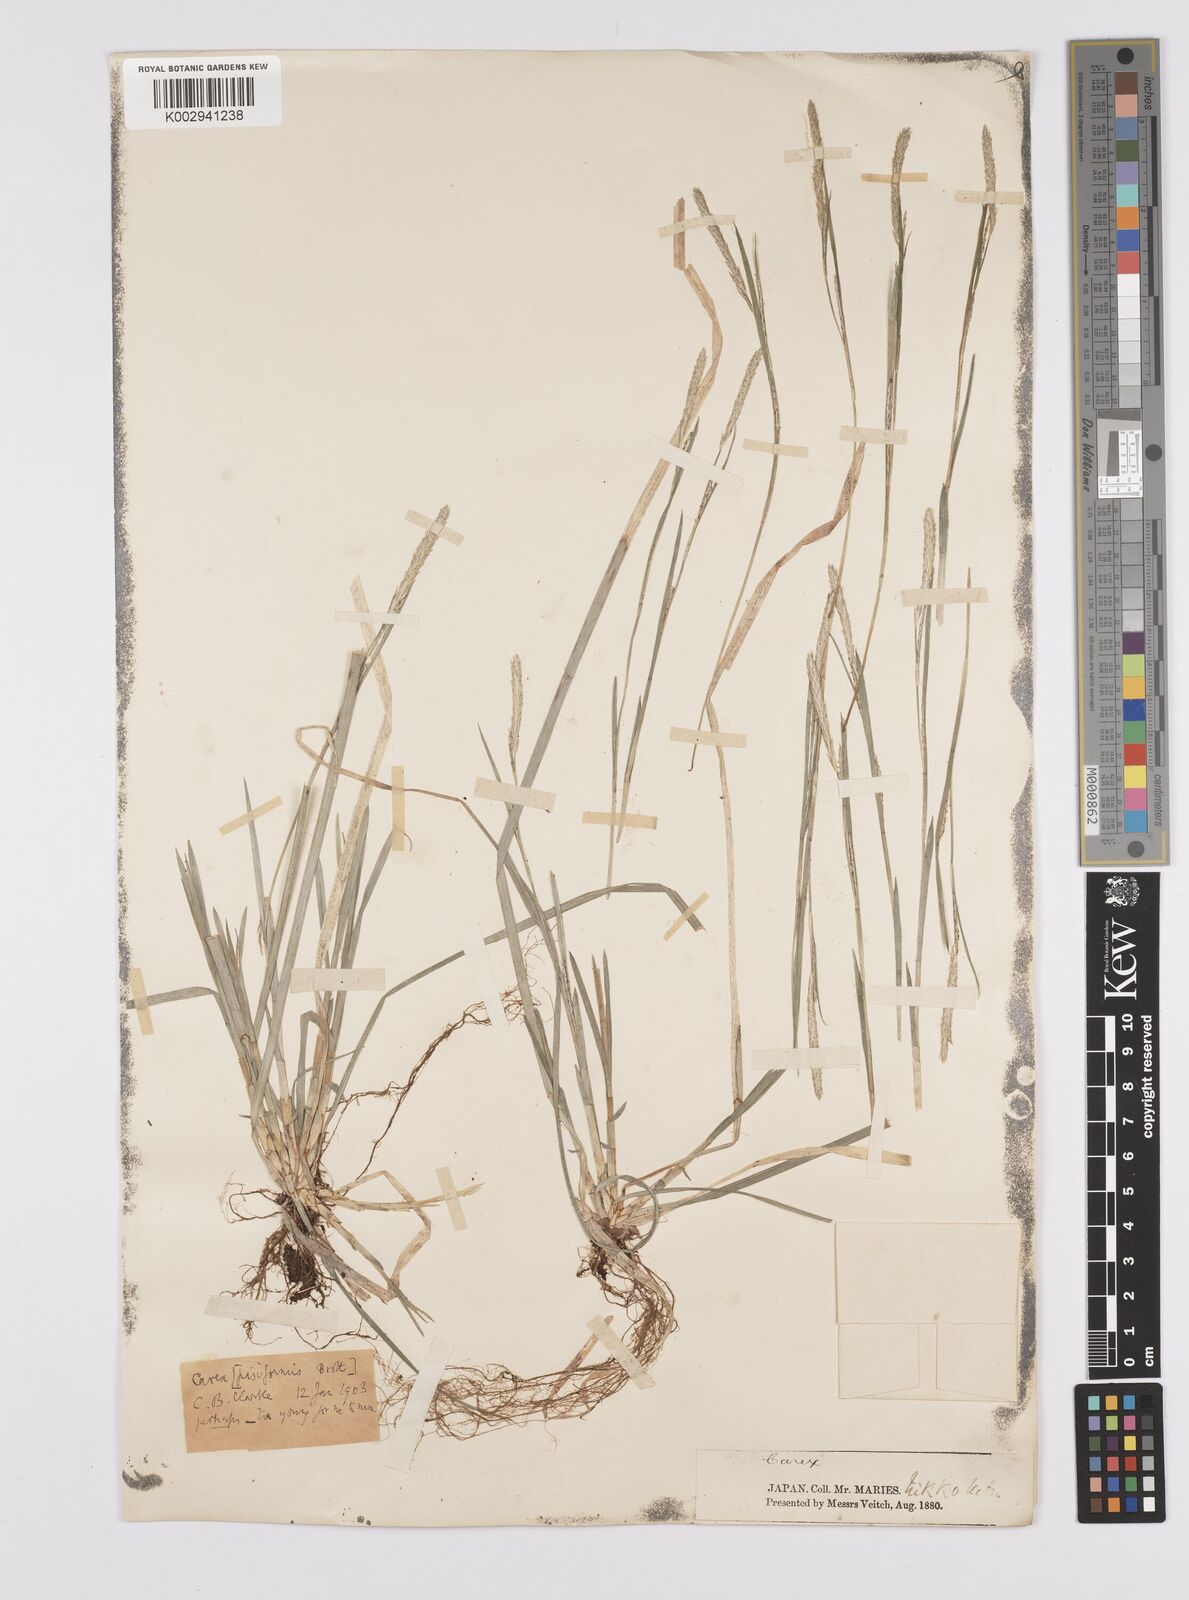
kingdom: Plantae
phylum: Tracheophyta
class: Liliopsida
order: Poales
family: Cyperaceae
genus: Carex
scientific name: Carex pisiformis
